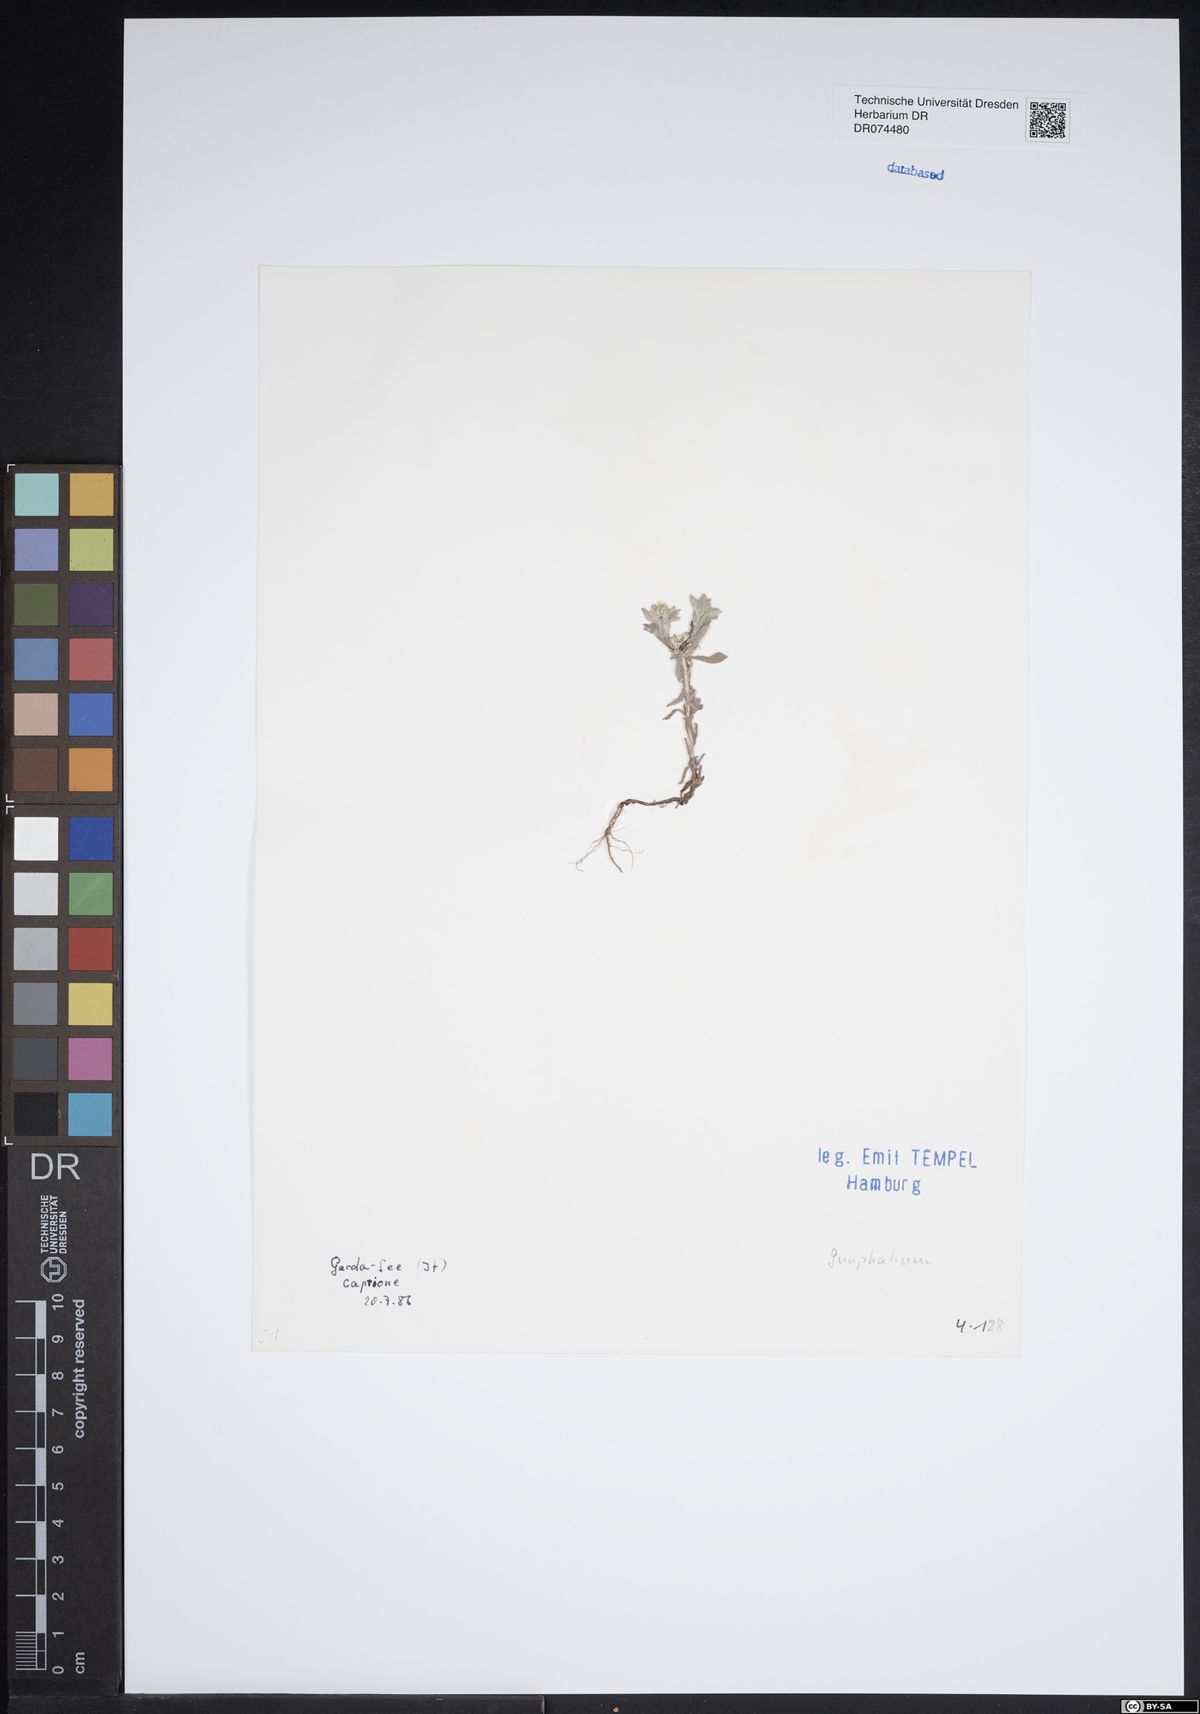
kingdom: Plantae
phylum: Tracheophyta
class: Magnoliopsida
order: Asterales
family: Asteraceae
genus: Gnaphalium
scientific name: Gnaphalium
